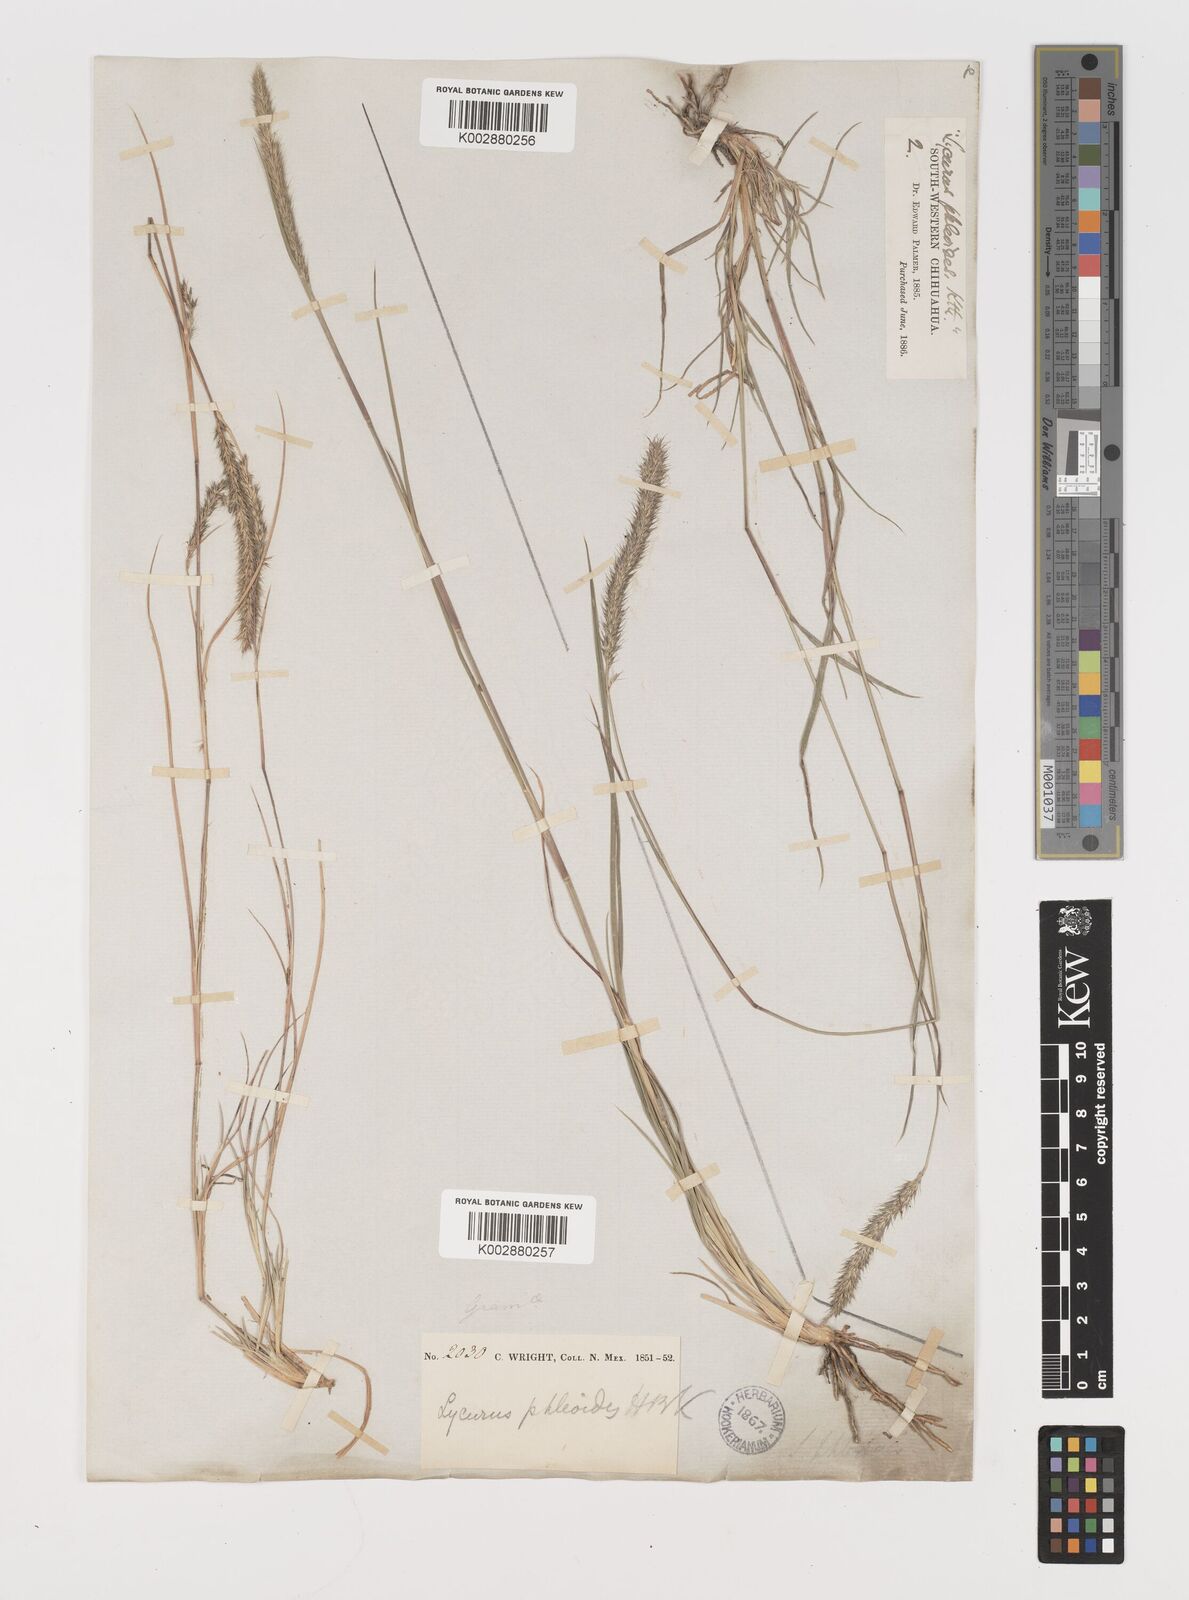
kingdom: Plantae
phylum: Tracheophyta
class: Liliopsida
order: Poales
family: Poaceae
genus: Muhlenbergia
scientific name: Muhlenbergia alopecuroides
